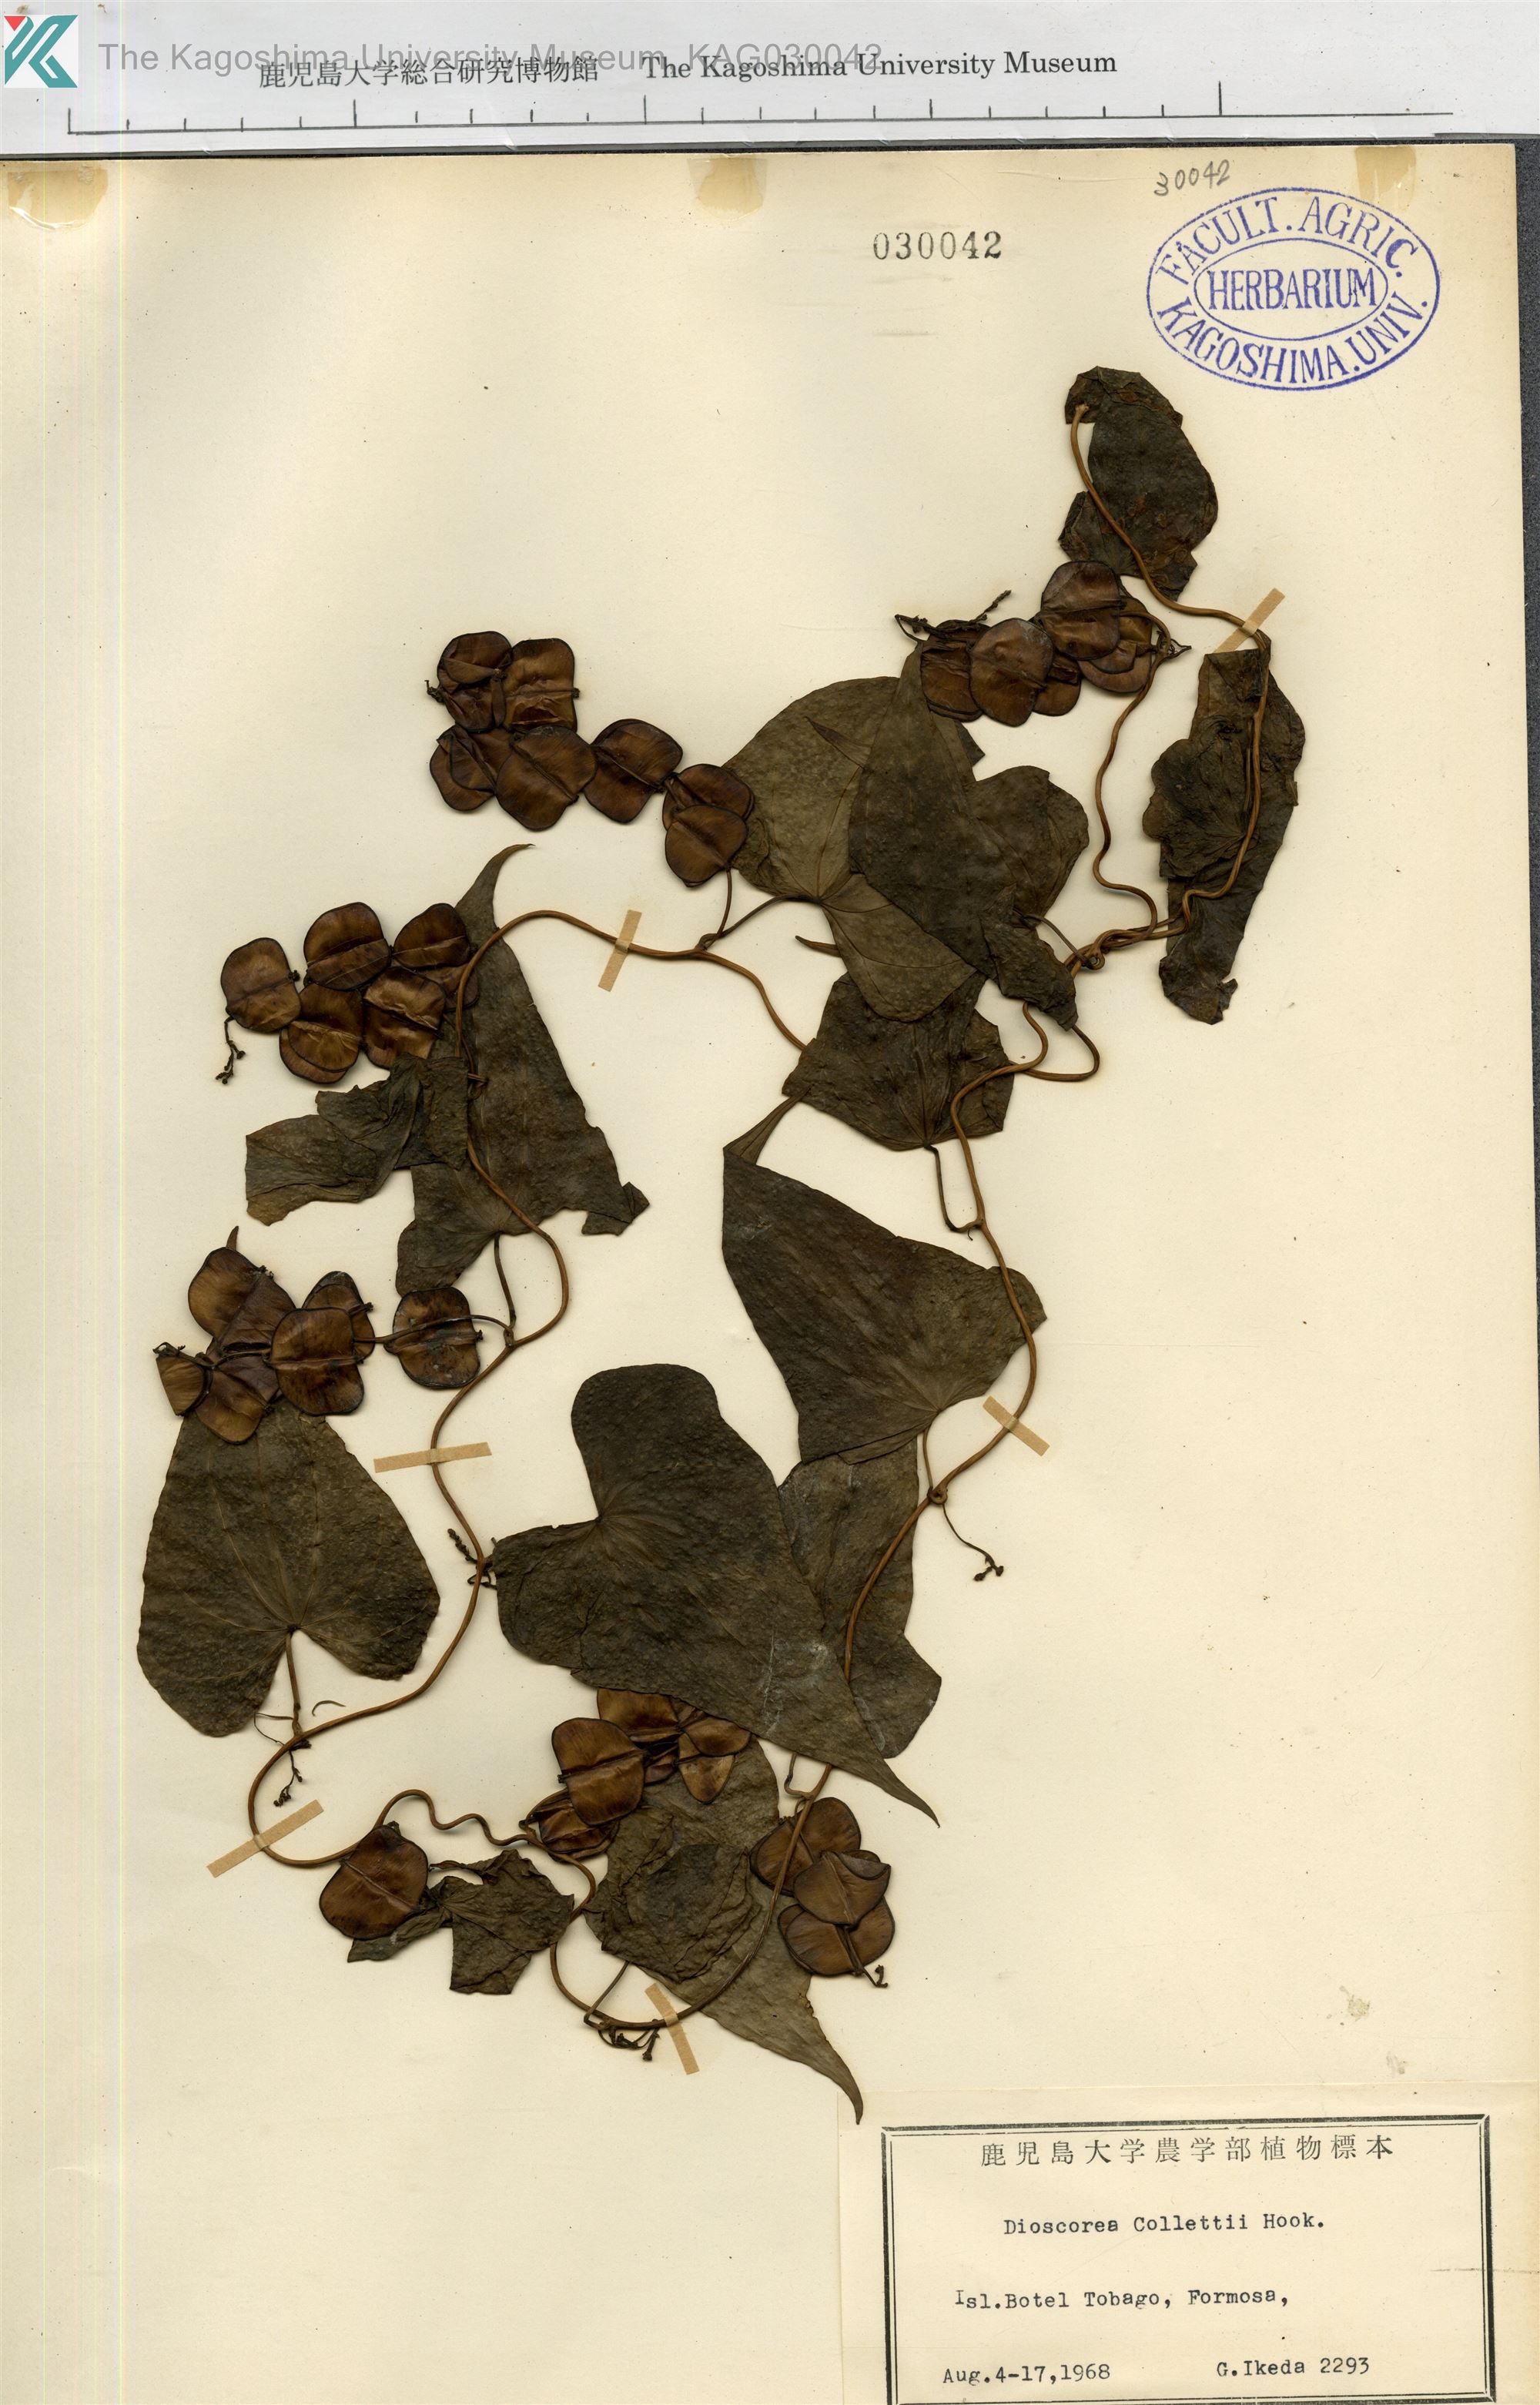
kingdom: Plantae
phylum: Tracheophyta
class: Liliopsida
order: Dioscoreales
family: Dioscoreaceae
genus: Dioscorea
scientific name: Dioscorea collettii
